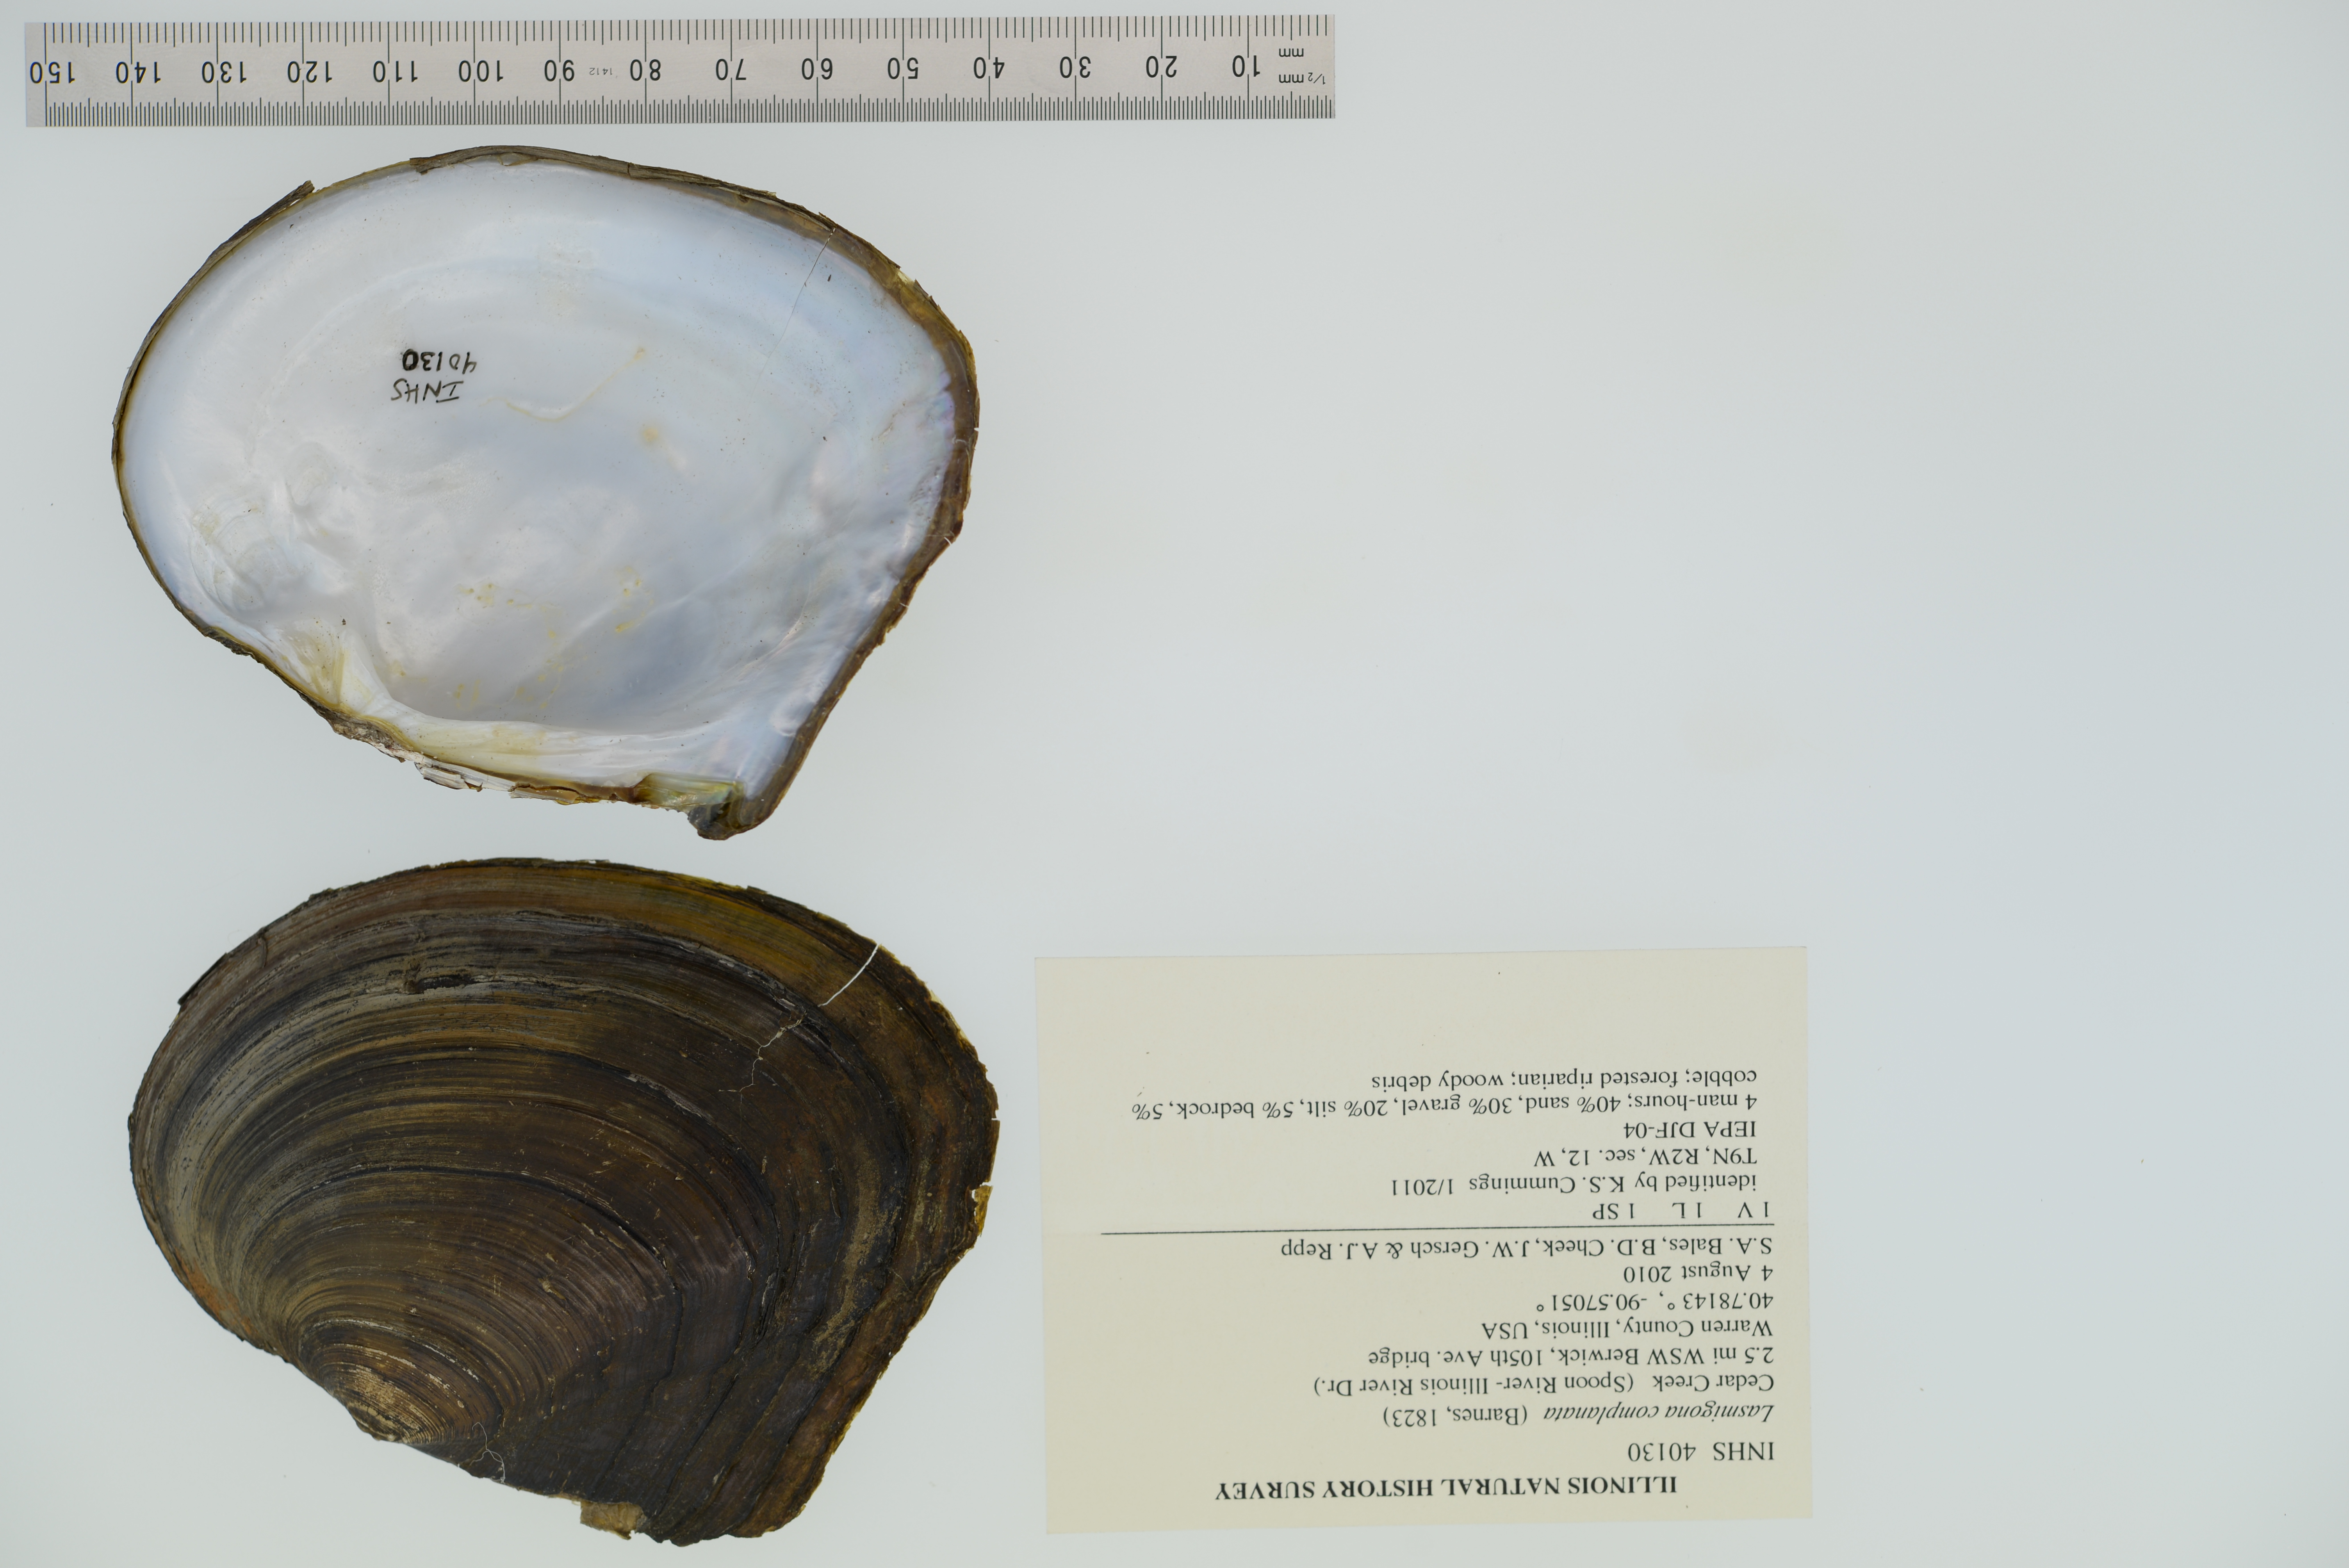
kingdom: Animalia
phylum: Mollusca
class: Bivalvia
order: Unionida
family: Unionidae
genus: Lasmigona
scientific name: Lasmigona complanata
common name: White heelsplitter
